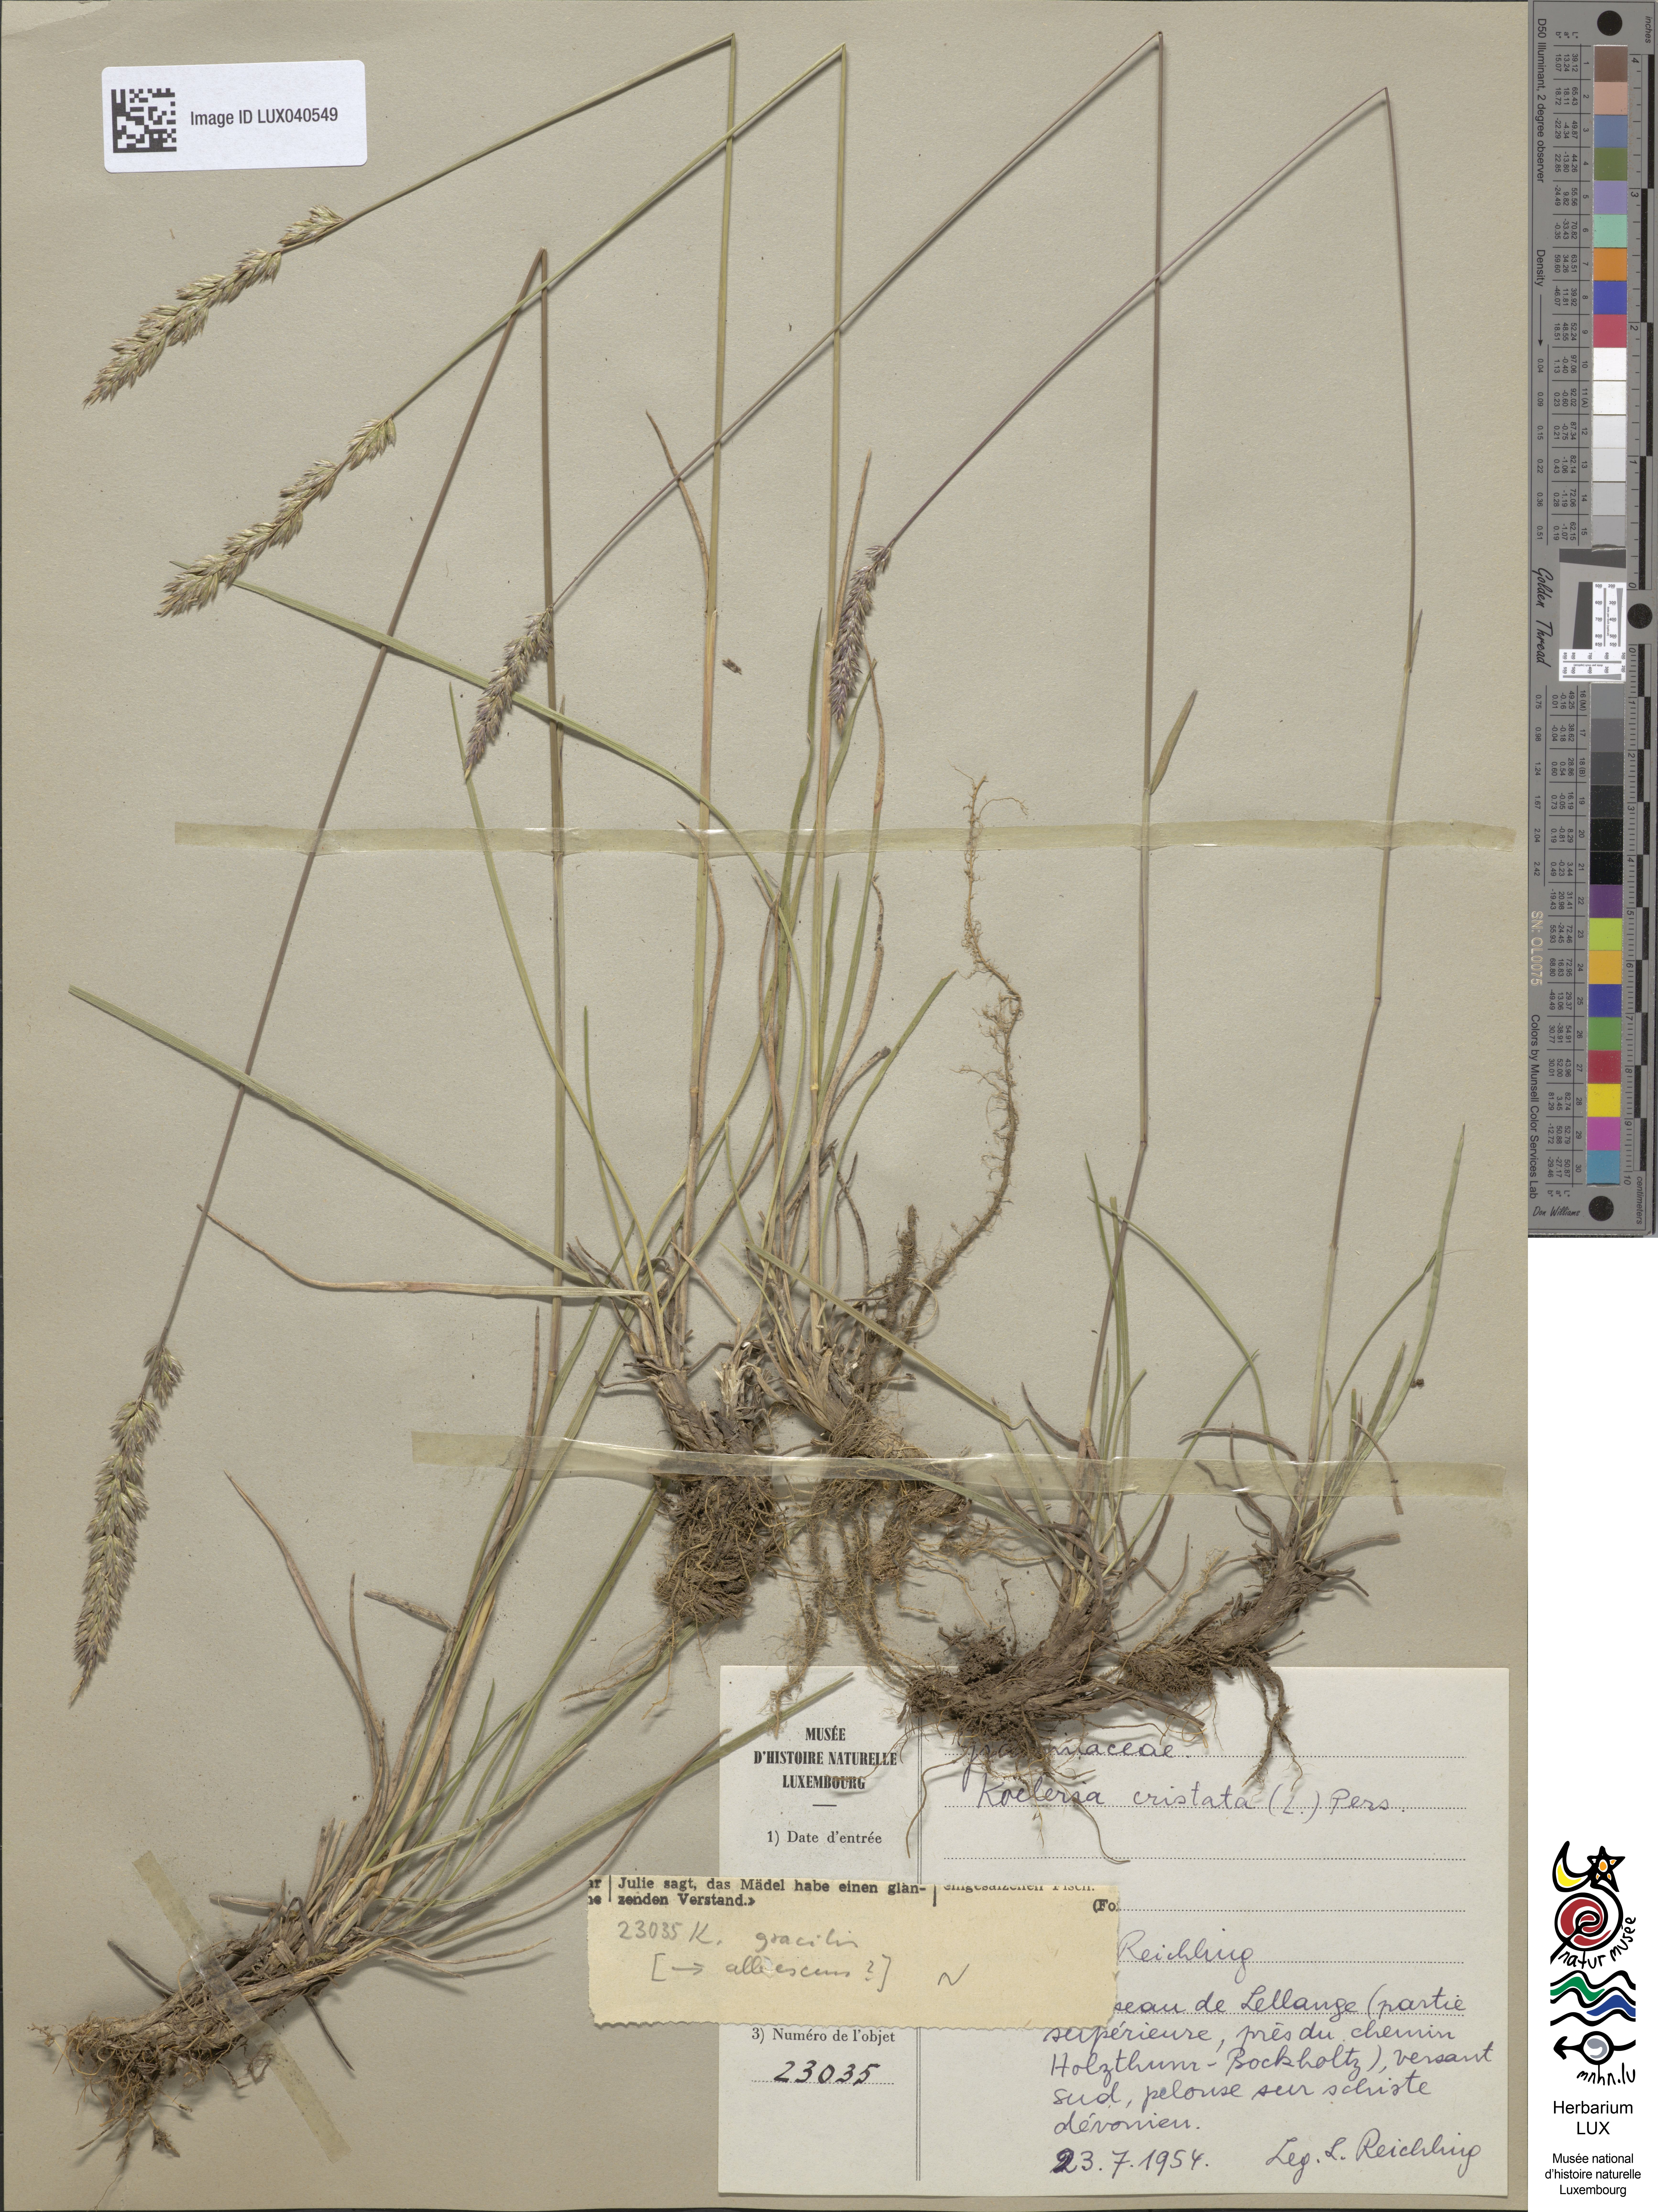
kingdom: Plantae
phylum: Tracheophyta
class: Liliopsida
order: Poales
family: Poaceae
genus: Koeleria
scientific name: Koeleria pyramidata
